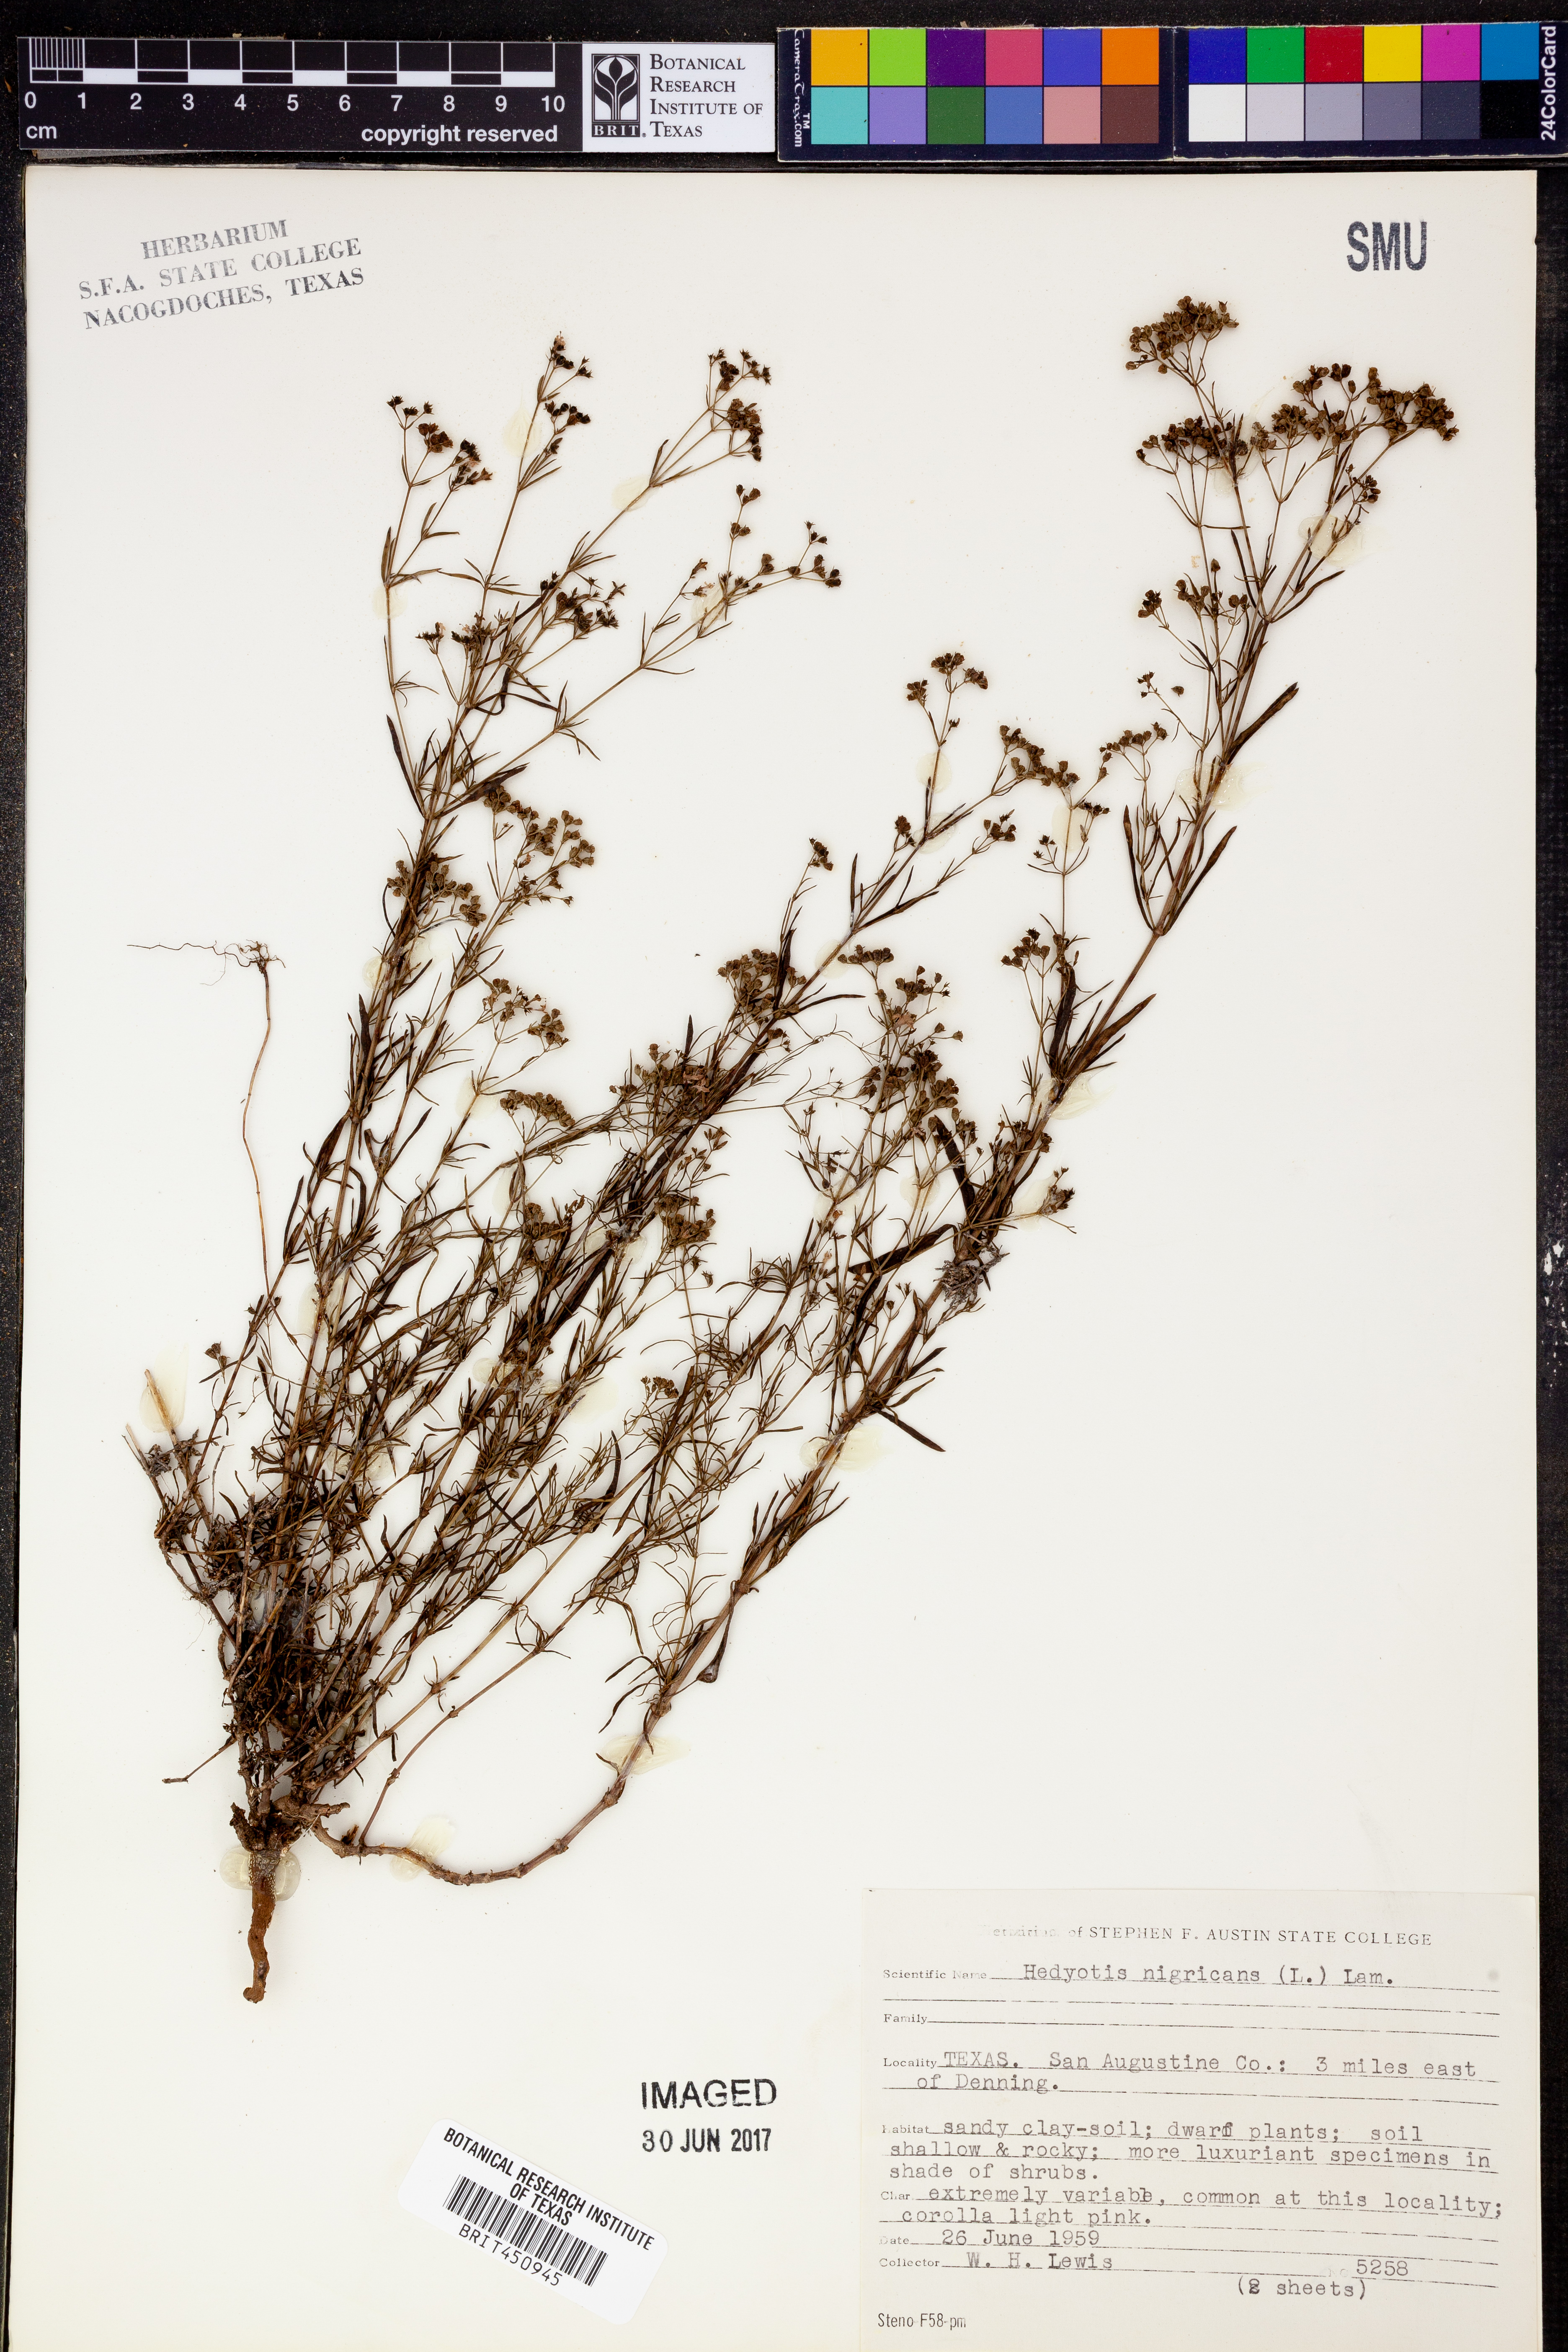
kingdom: Plantae
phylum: Tracheophyta
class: Magnoliopsida
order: Gentianales
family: Rubiaceae
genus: Stenaria
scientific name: Stenaria nigricans
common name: Diamondflowers
